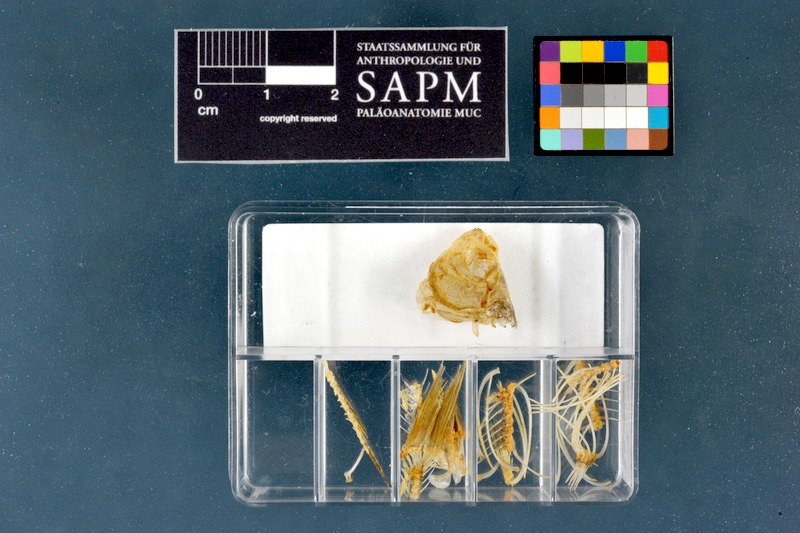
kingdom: Animalia
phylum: Chordata
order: Cypriniformes
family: Cyprinidae
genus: Rhodeus
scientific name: Rhodeus amarus
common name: Bitterling
